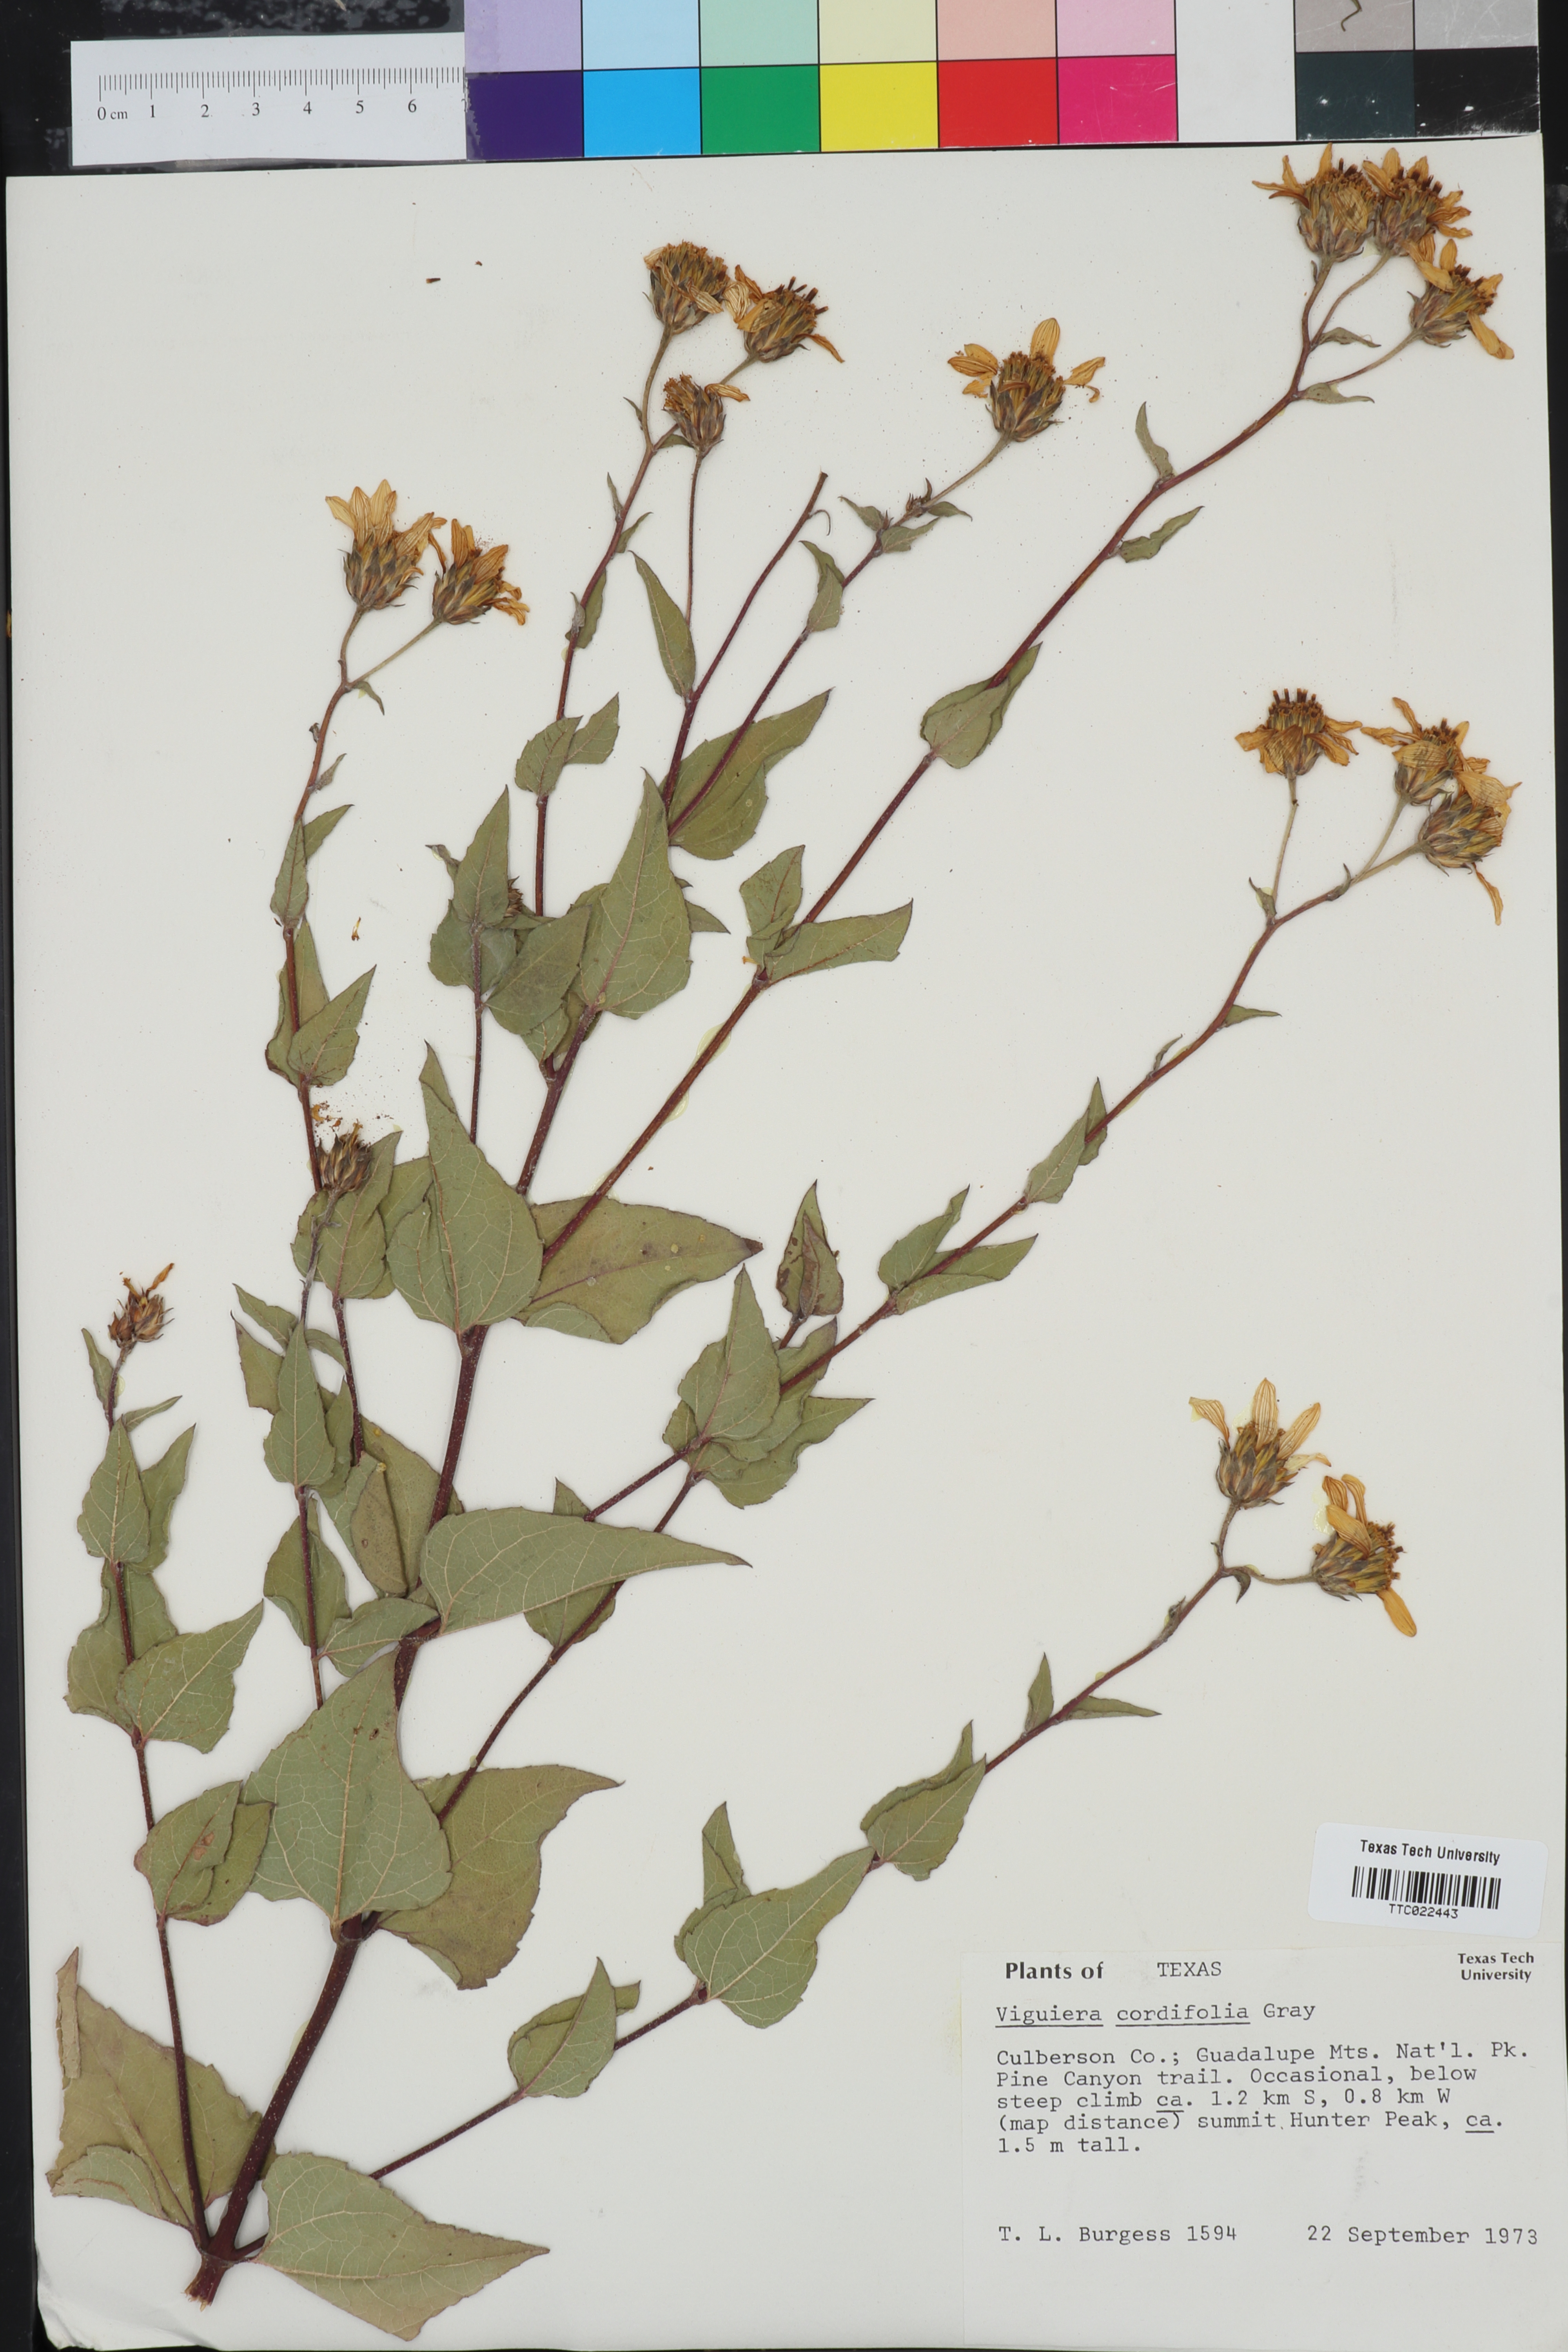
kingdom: Plantae
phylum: Tracheophyta
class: Magnoliopsida
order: Asterales
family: Asteraceae
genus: Aldama
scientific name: Aldama cordifolia
